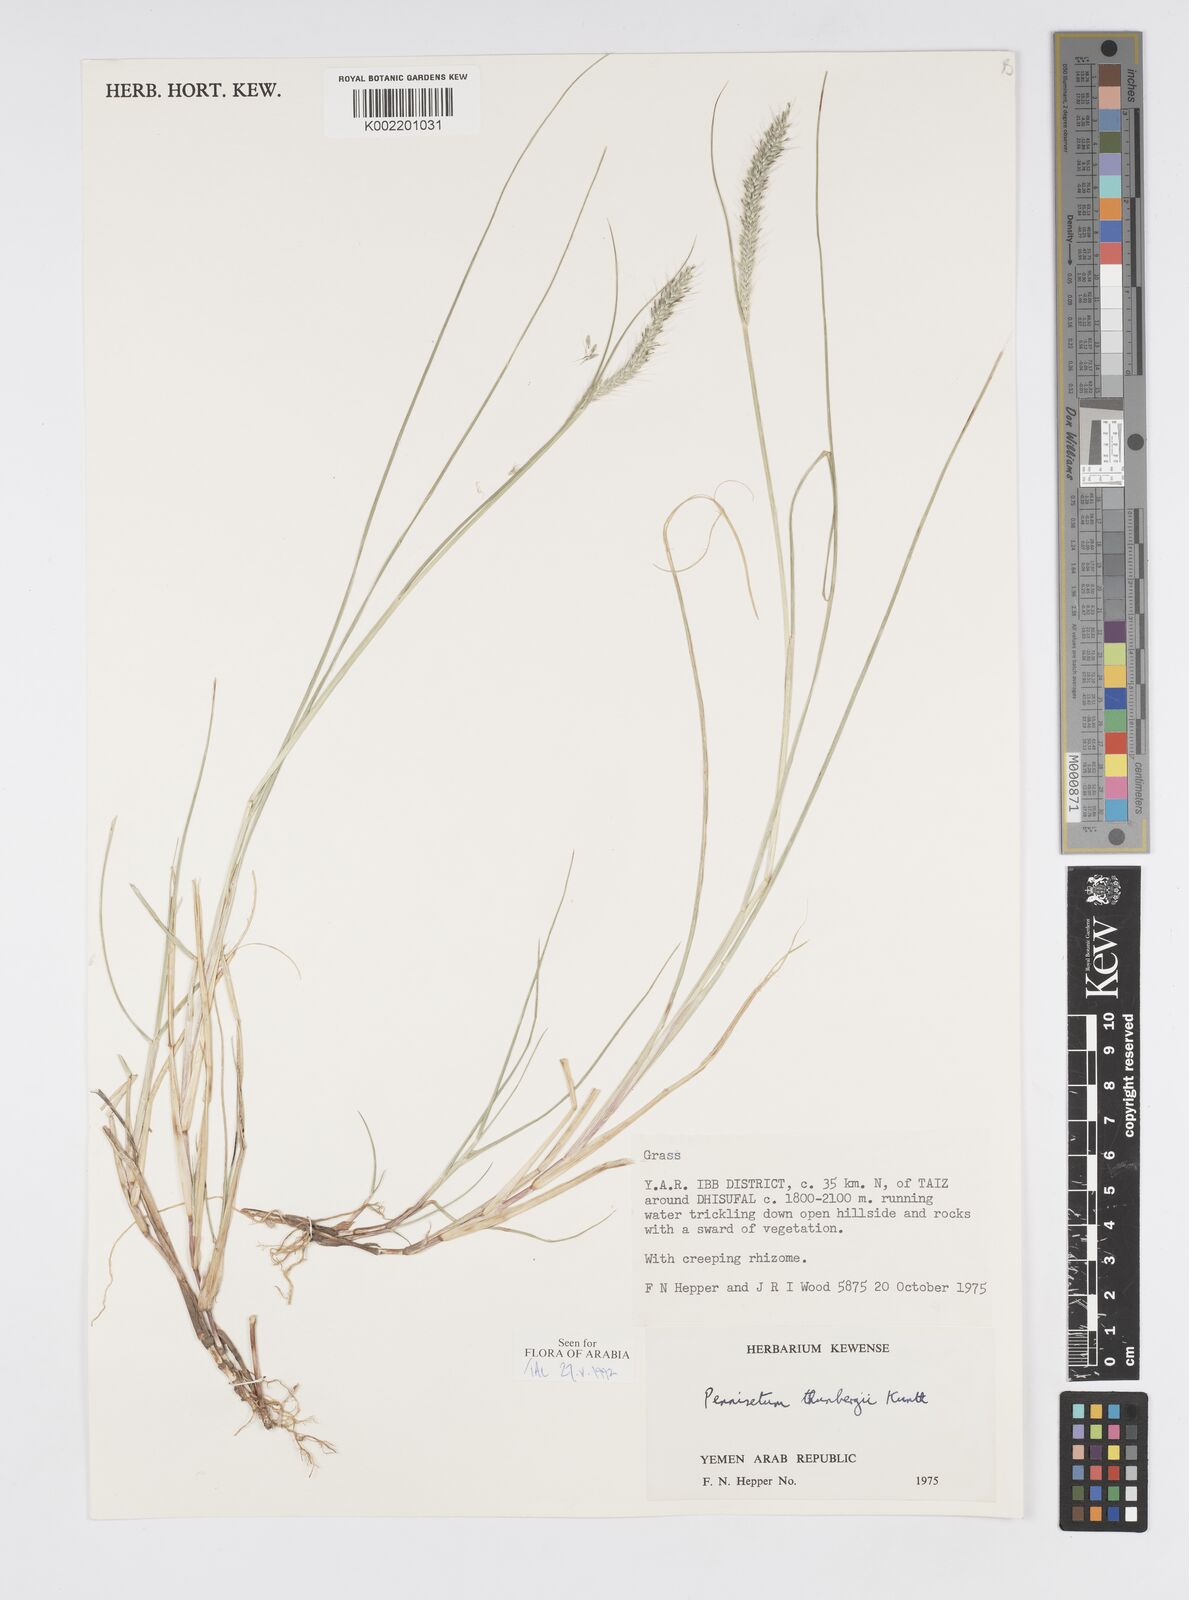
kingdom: Plantae
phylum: Tracheophyta
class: Liliopsida
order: Poales
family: Poaceae
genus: Cenchrus
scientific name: Cenchrus geniculatus
